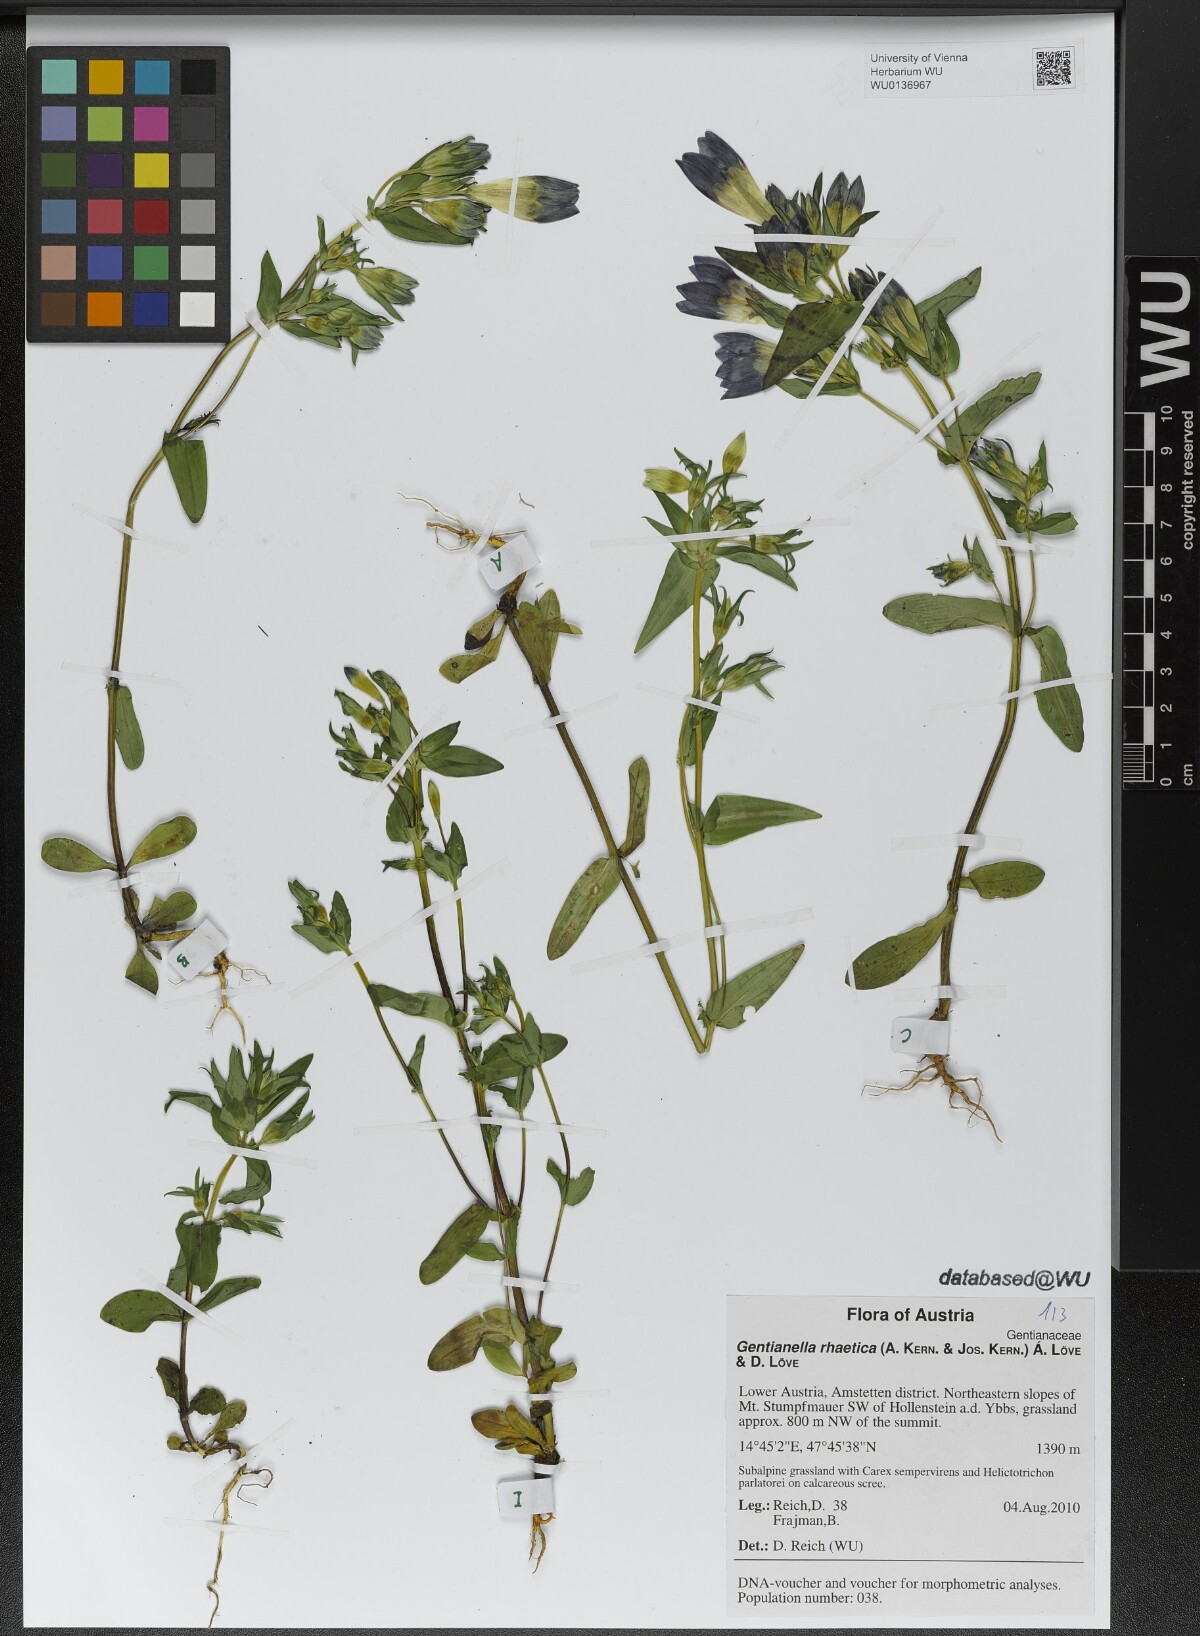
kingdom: Plantae
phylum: Tracheophyta
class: Magnoliopsida
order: Gentianales
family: Gentianaceae
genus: Gentianella
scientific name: Gentianella rhaetica
